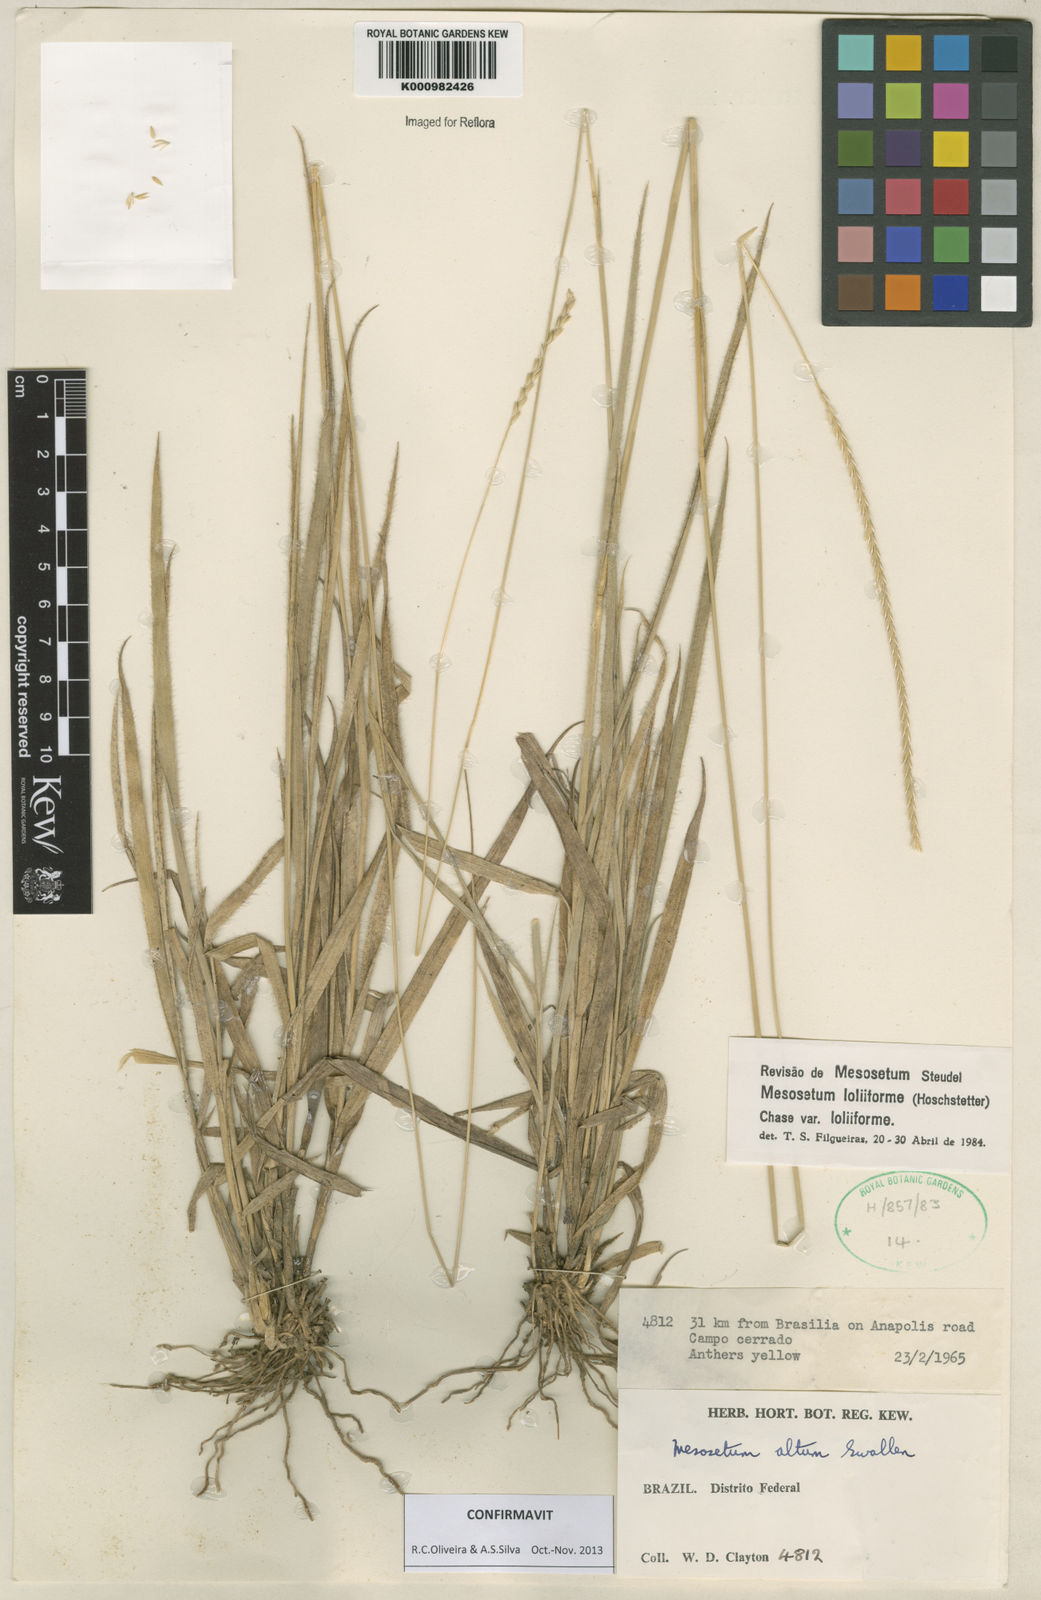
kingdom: Plantae
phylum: Tracheophyta
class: Liliopsida
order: Poales
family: Poaceae
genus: Mesosetum
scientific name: Mesosetum
